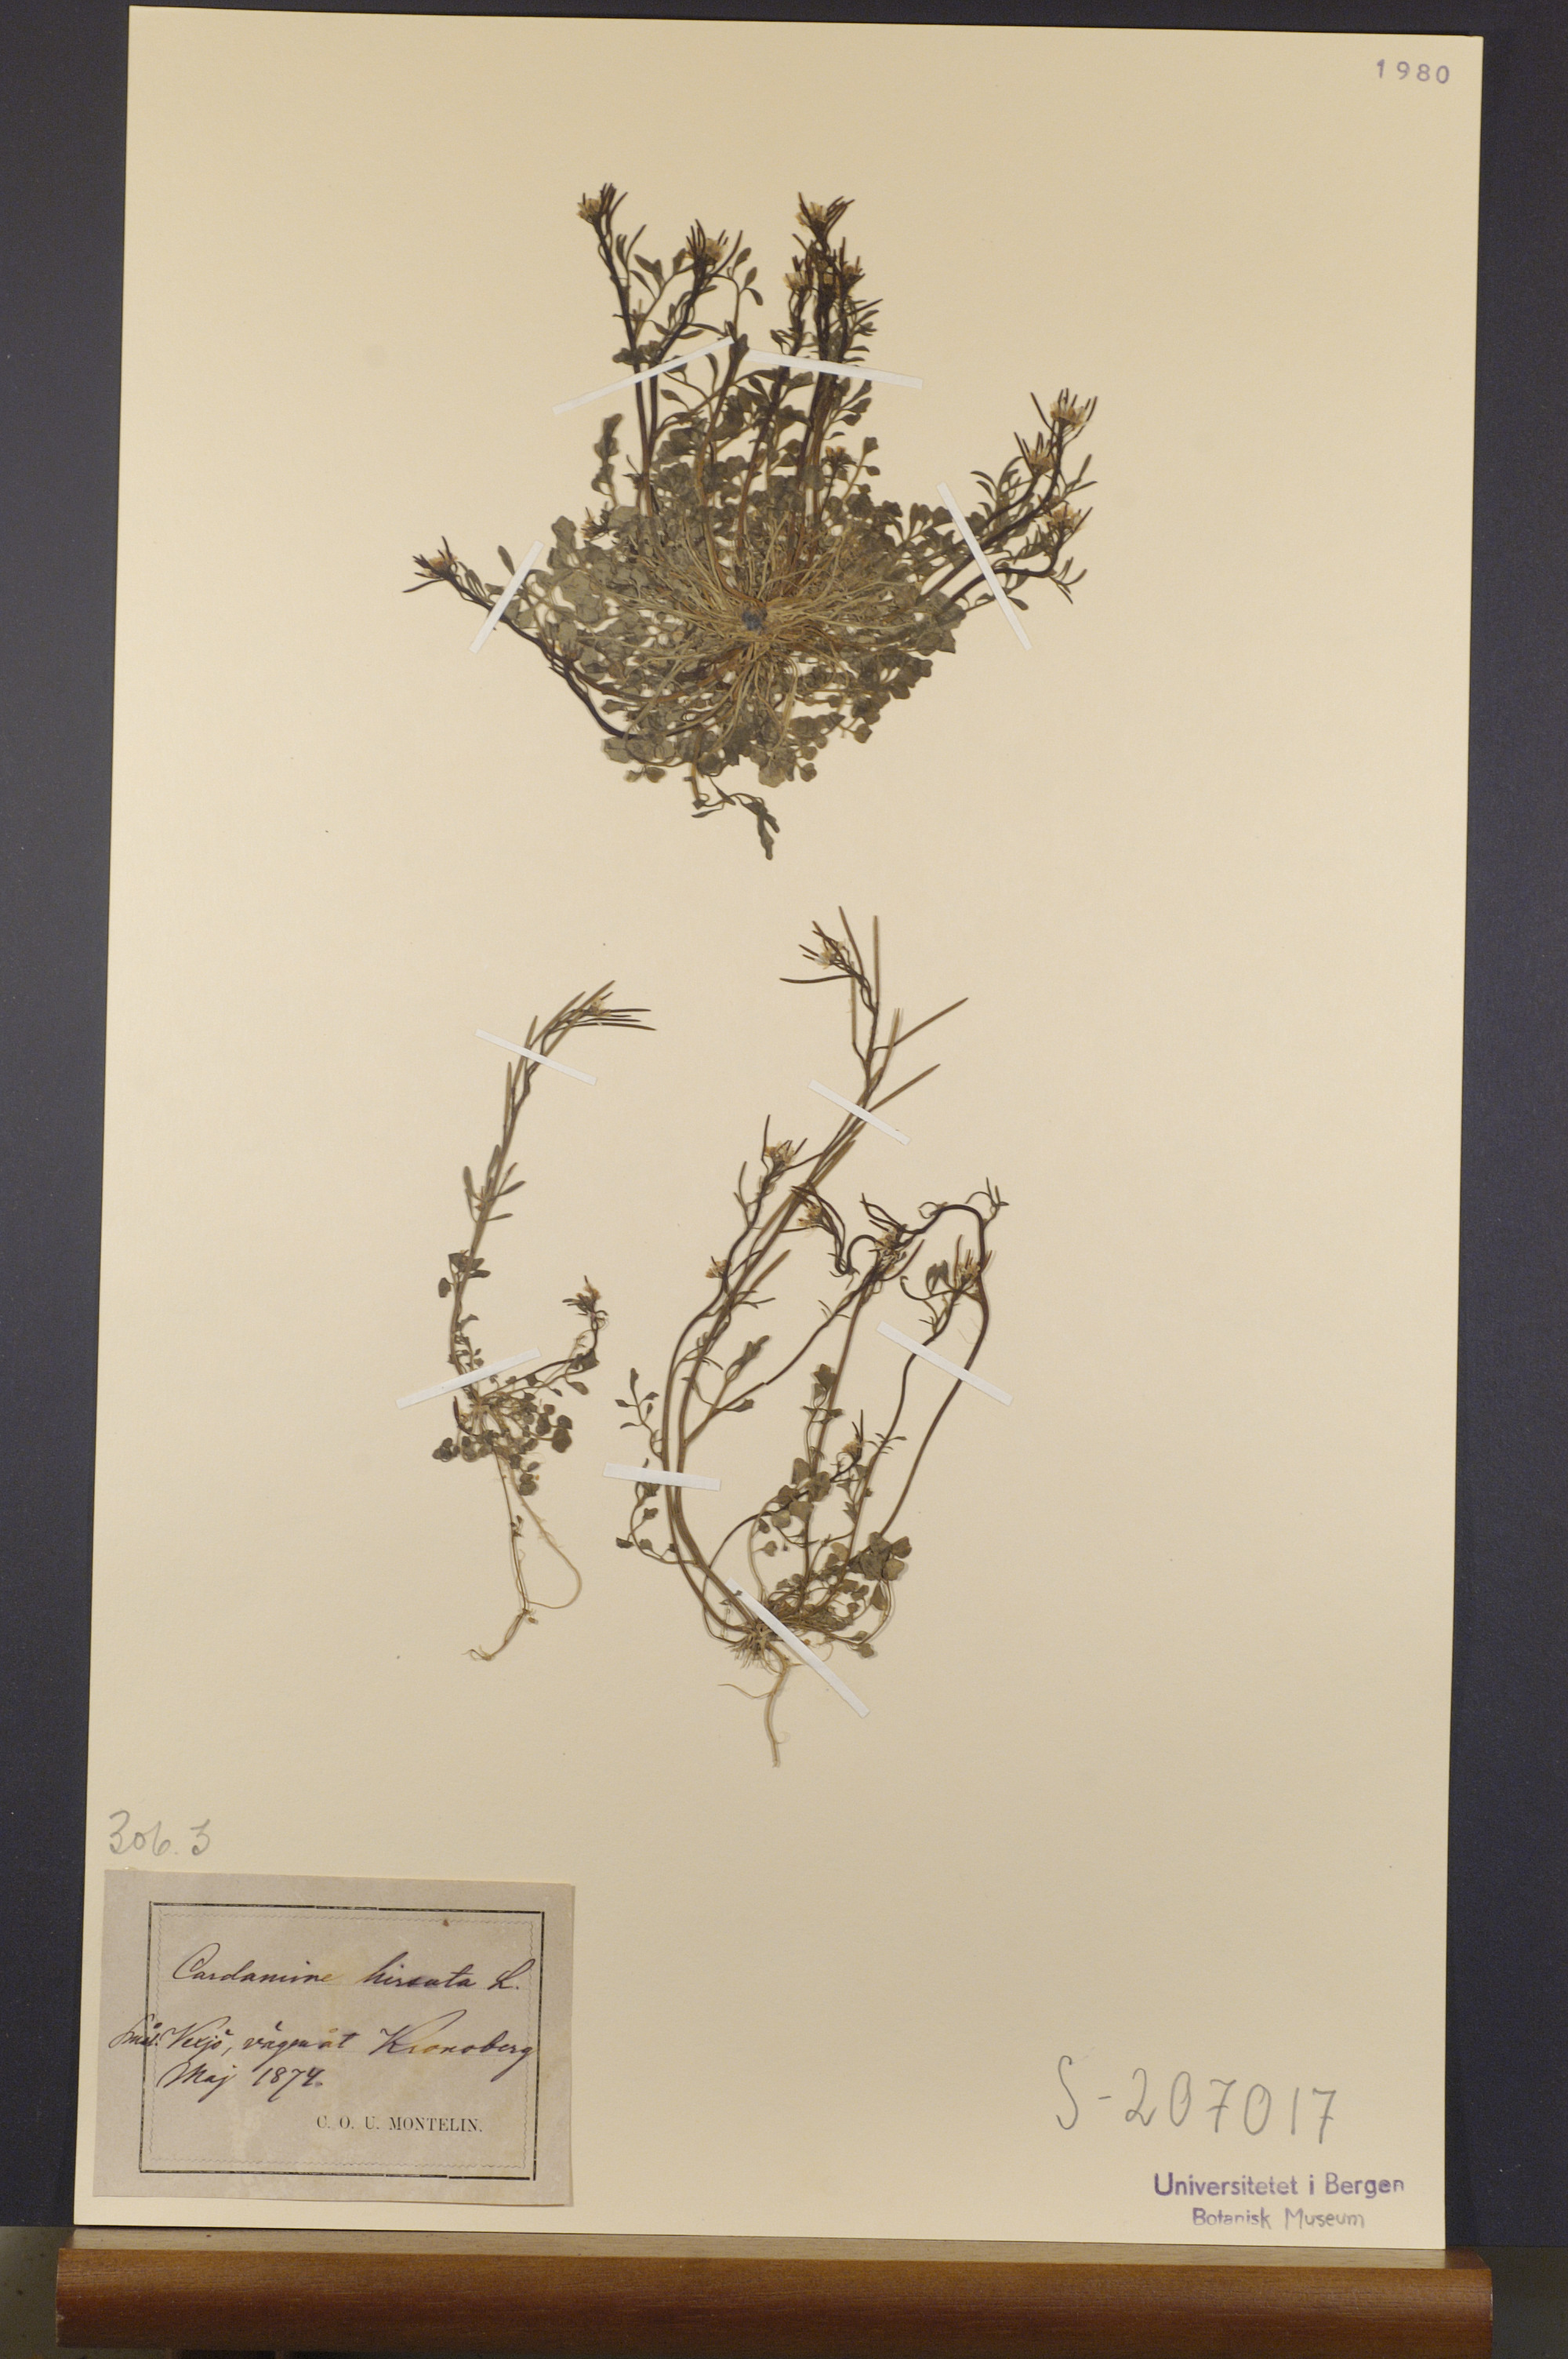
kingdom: Plantae
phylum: Tracheophyta
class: Magnoliopsida
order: Brassicales
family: Brassicaceae
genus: Cardamine
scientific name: Cardamine hirsuta
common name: Hairy bittercress
